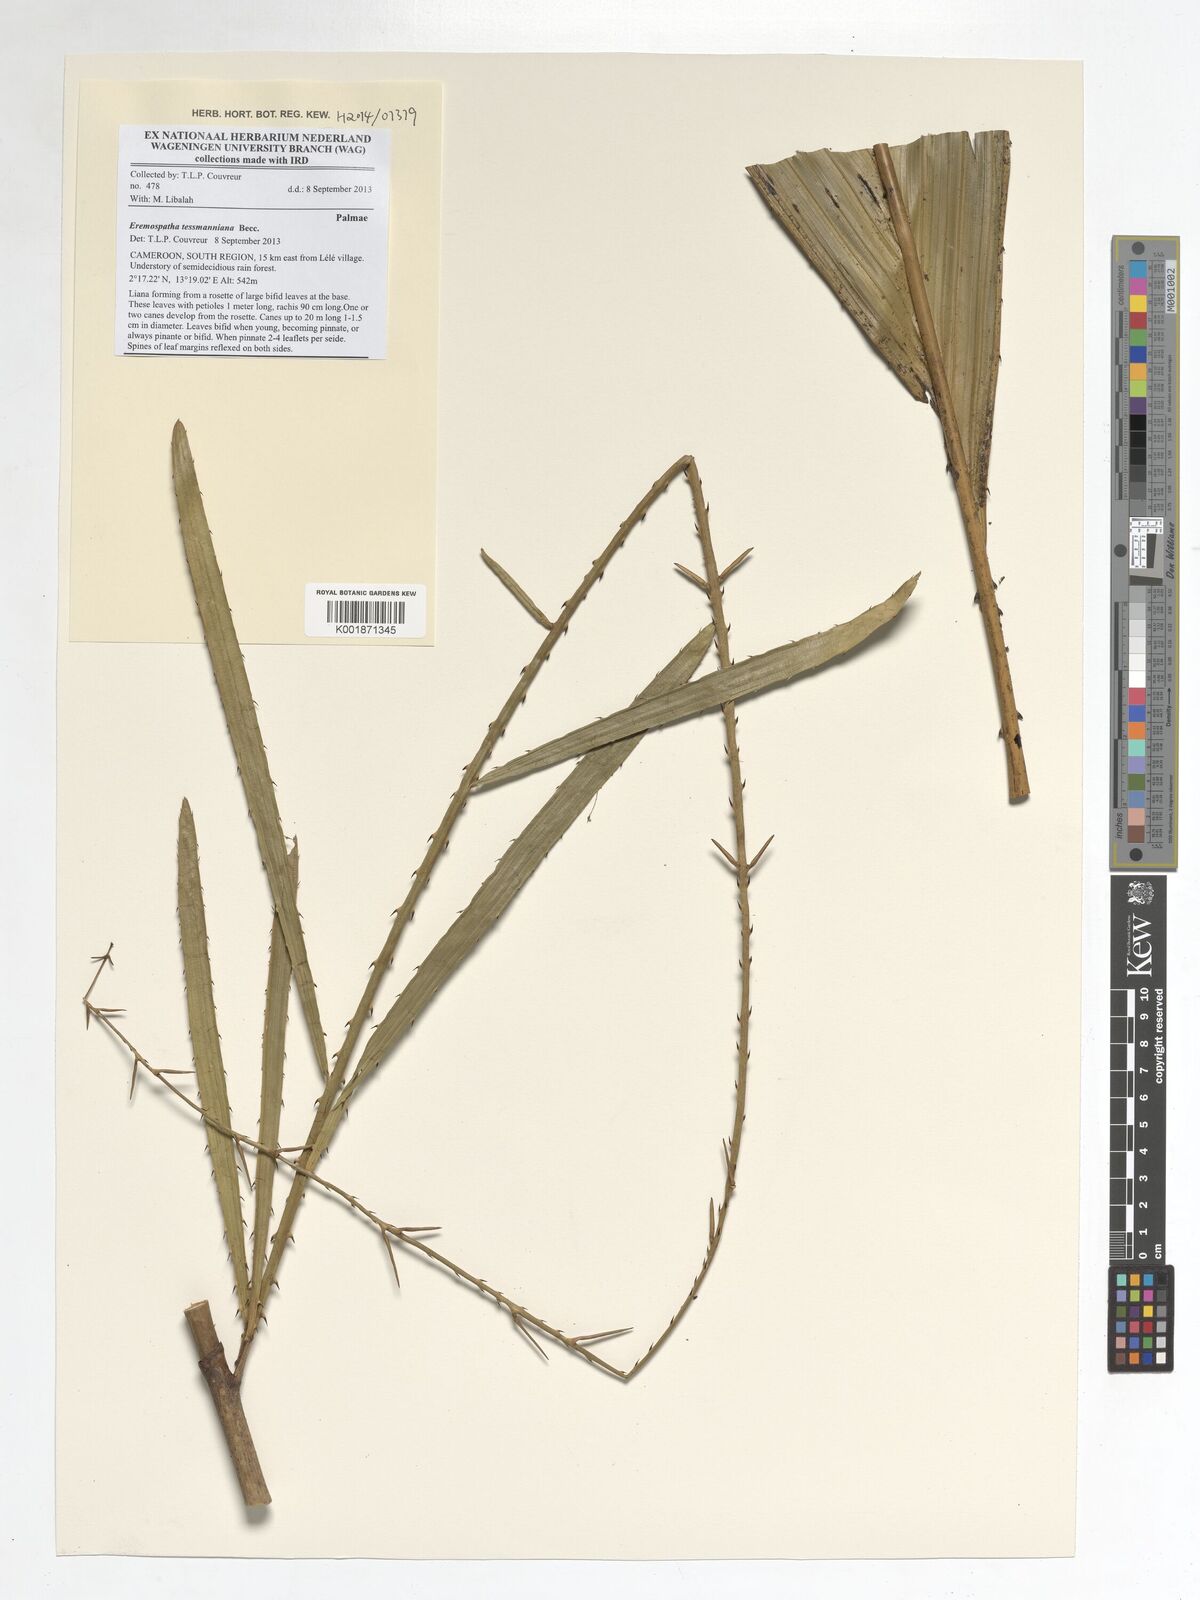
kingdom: Plantae
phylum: Tracheophyta
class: Liliopsida
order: Arecales
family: Arecaceae
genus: Eremospatha
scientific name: Eremospatha tessmanniana
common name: Rattan
